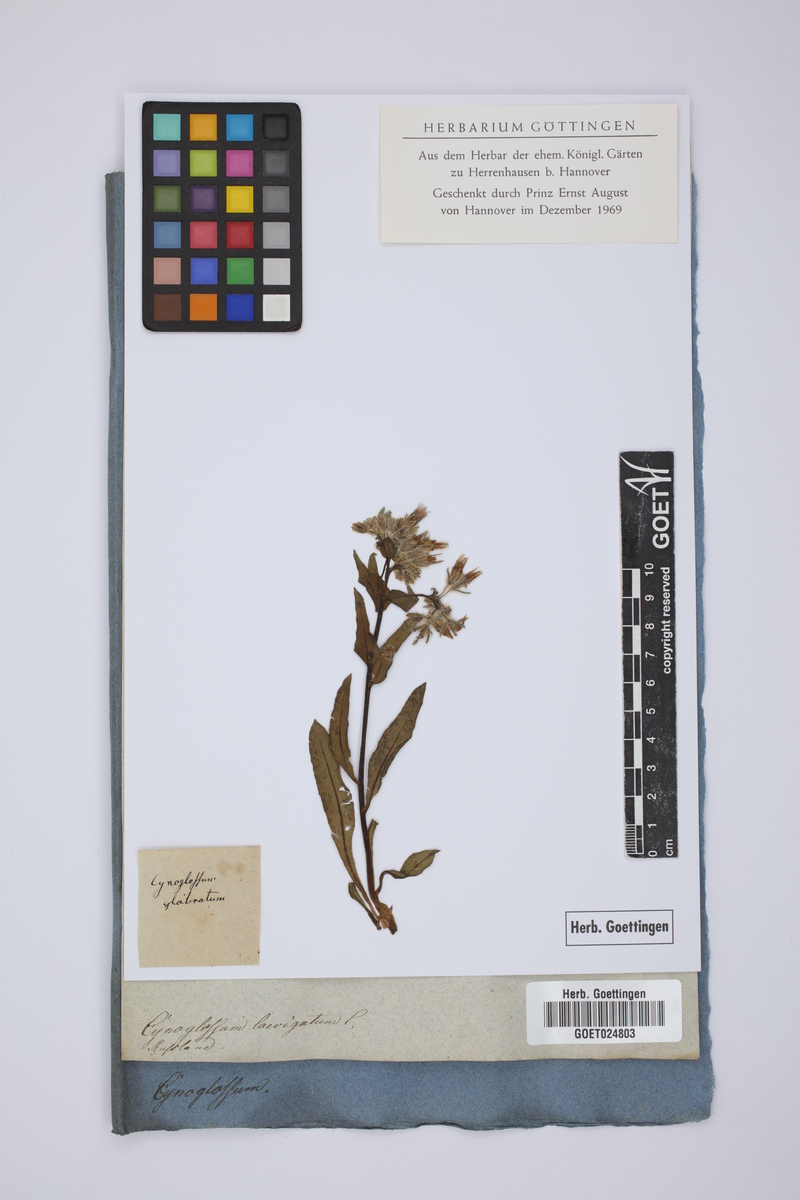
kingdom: Plantae
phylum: Tracheophyta
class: Magnoliopsida
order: Boraginales
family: Boraginaceae
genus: Rindera
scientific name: Rindera tetraspis
